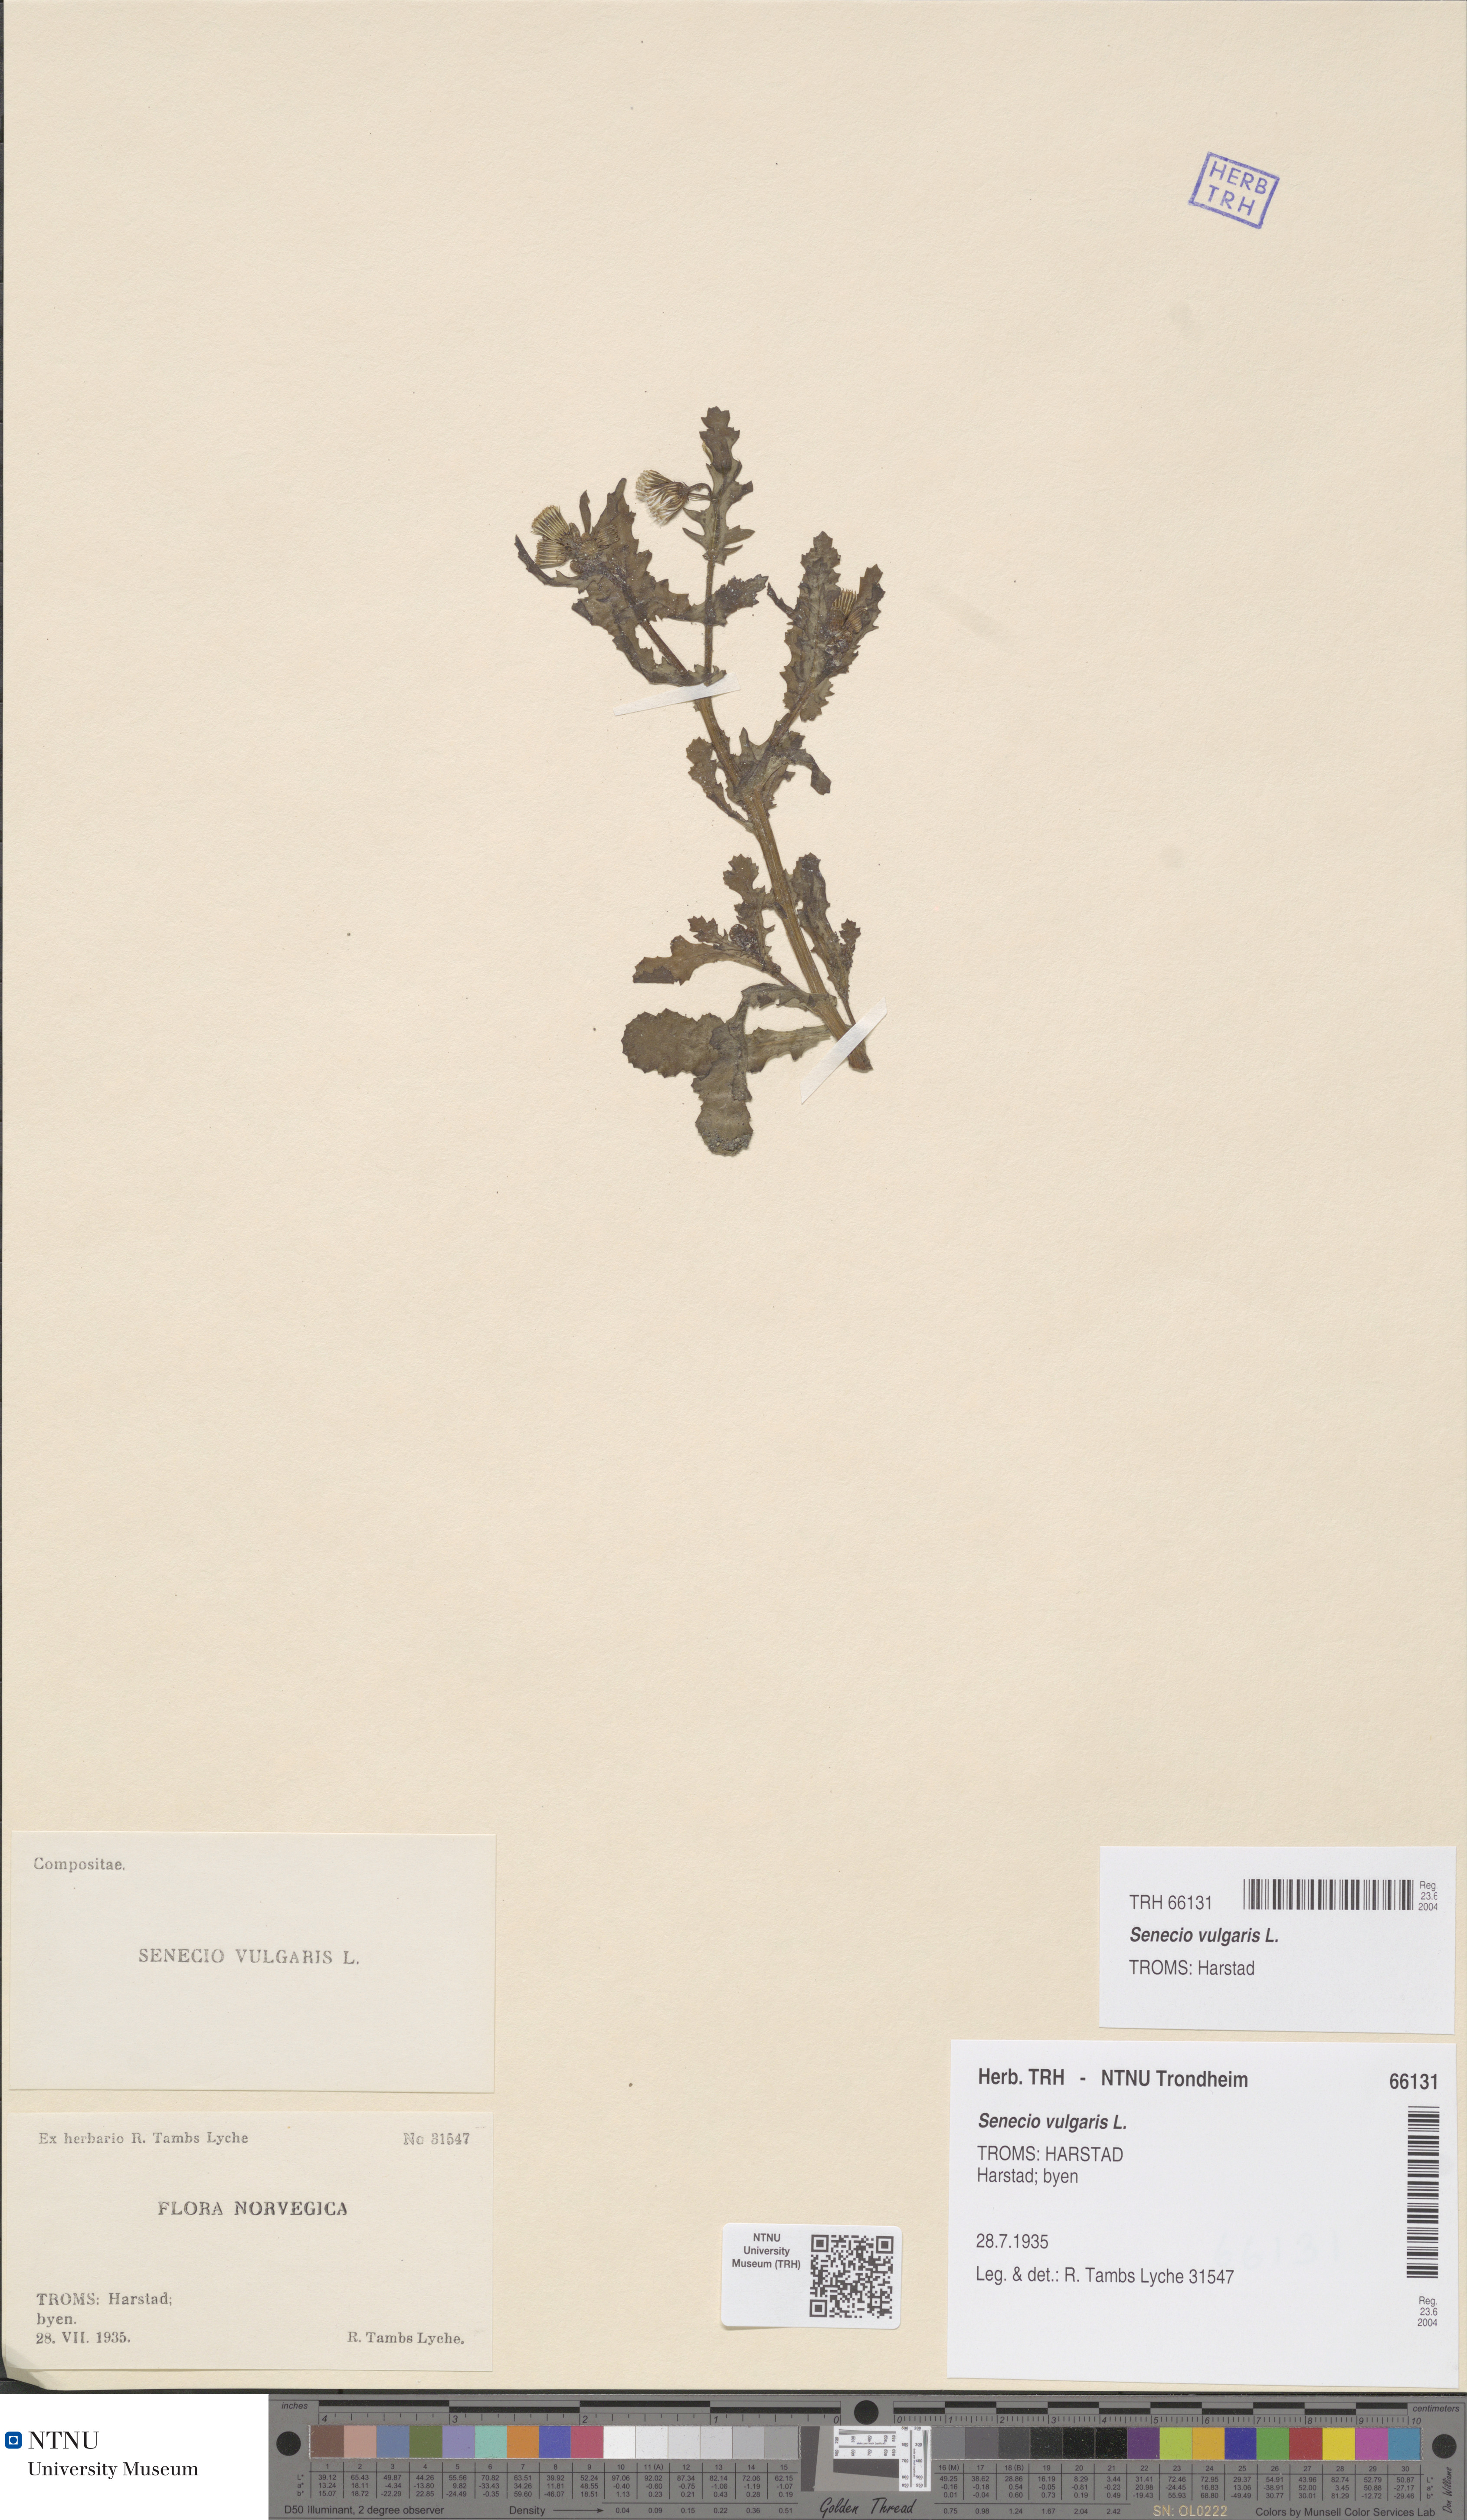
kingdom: Plantae
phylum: Tracheophyta
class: Magnoliopsida
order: Asterales
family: Asteraceae
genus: Senecio
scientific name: Senecio vulgaris
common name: Old-man-in-the-spring
